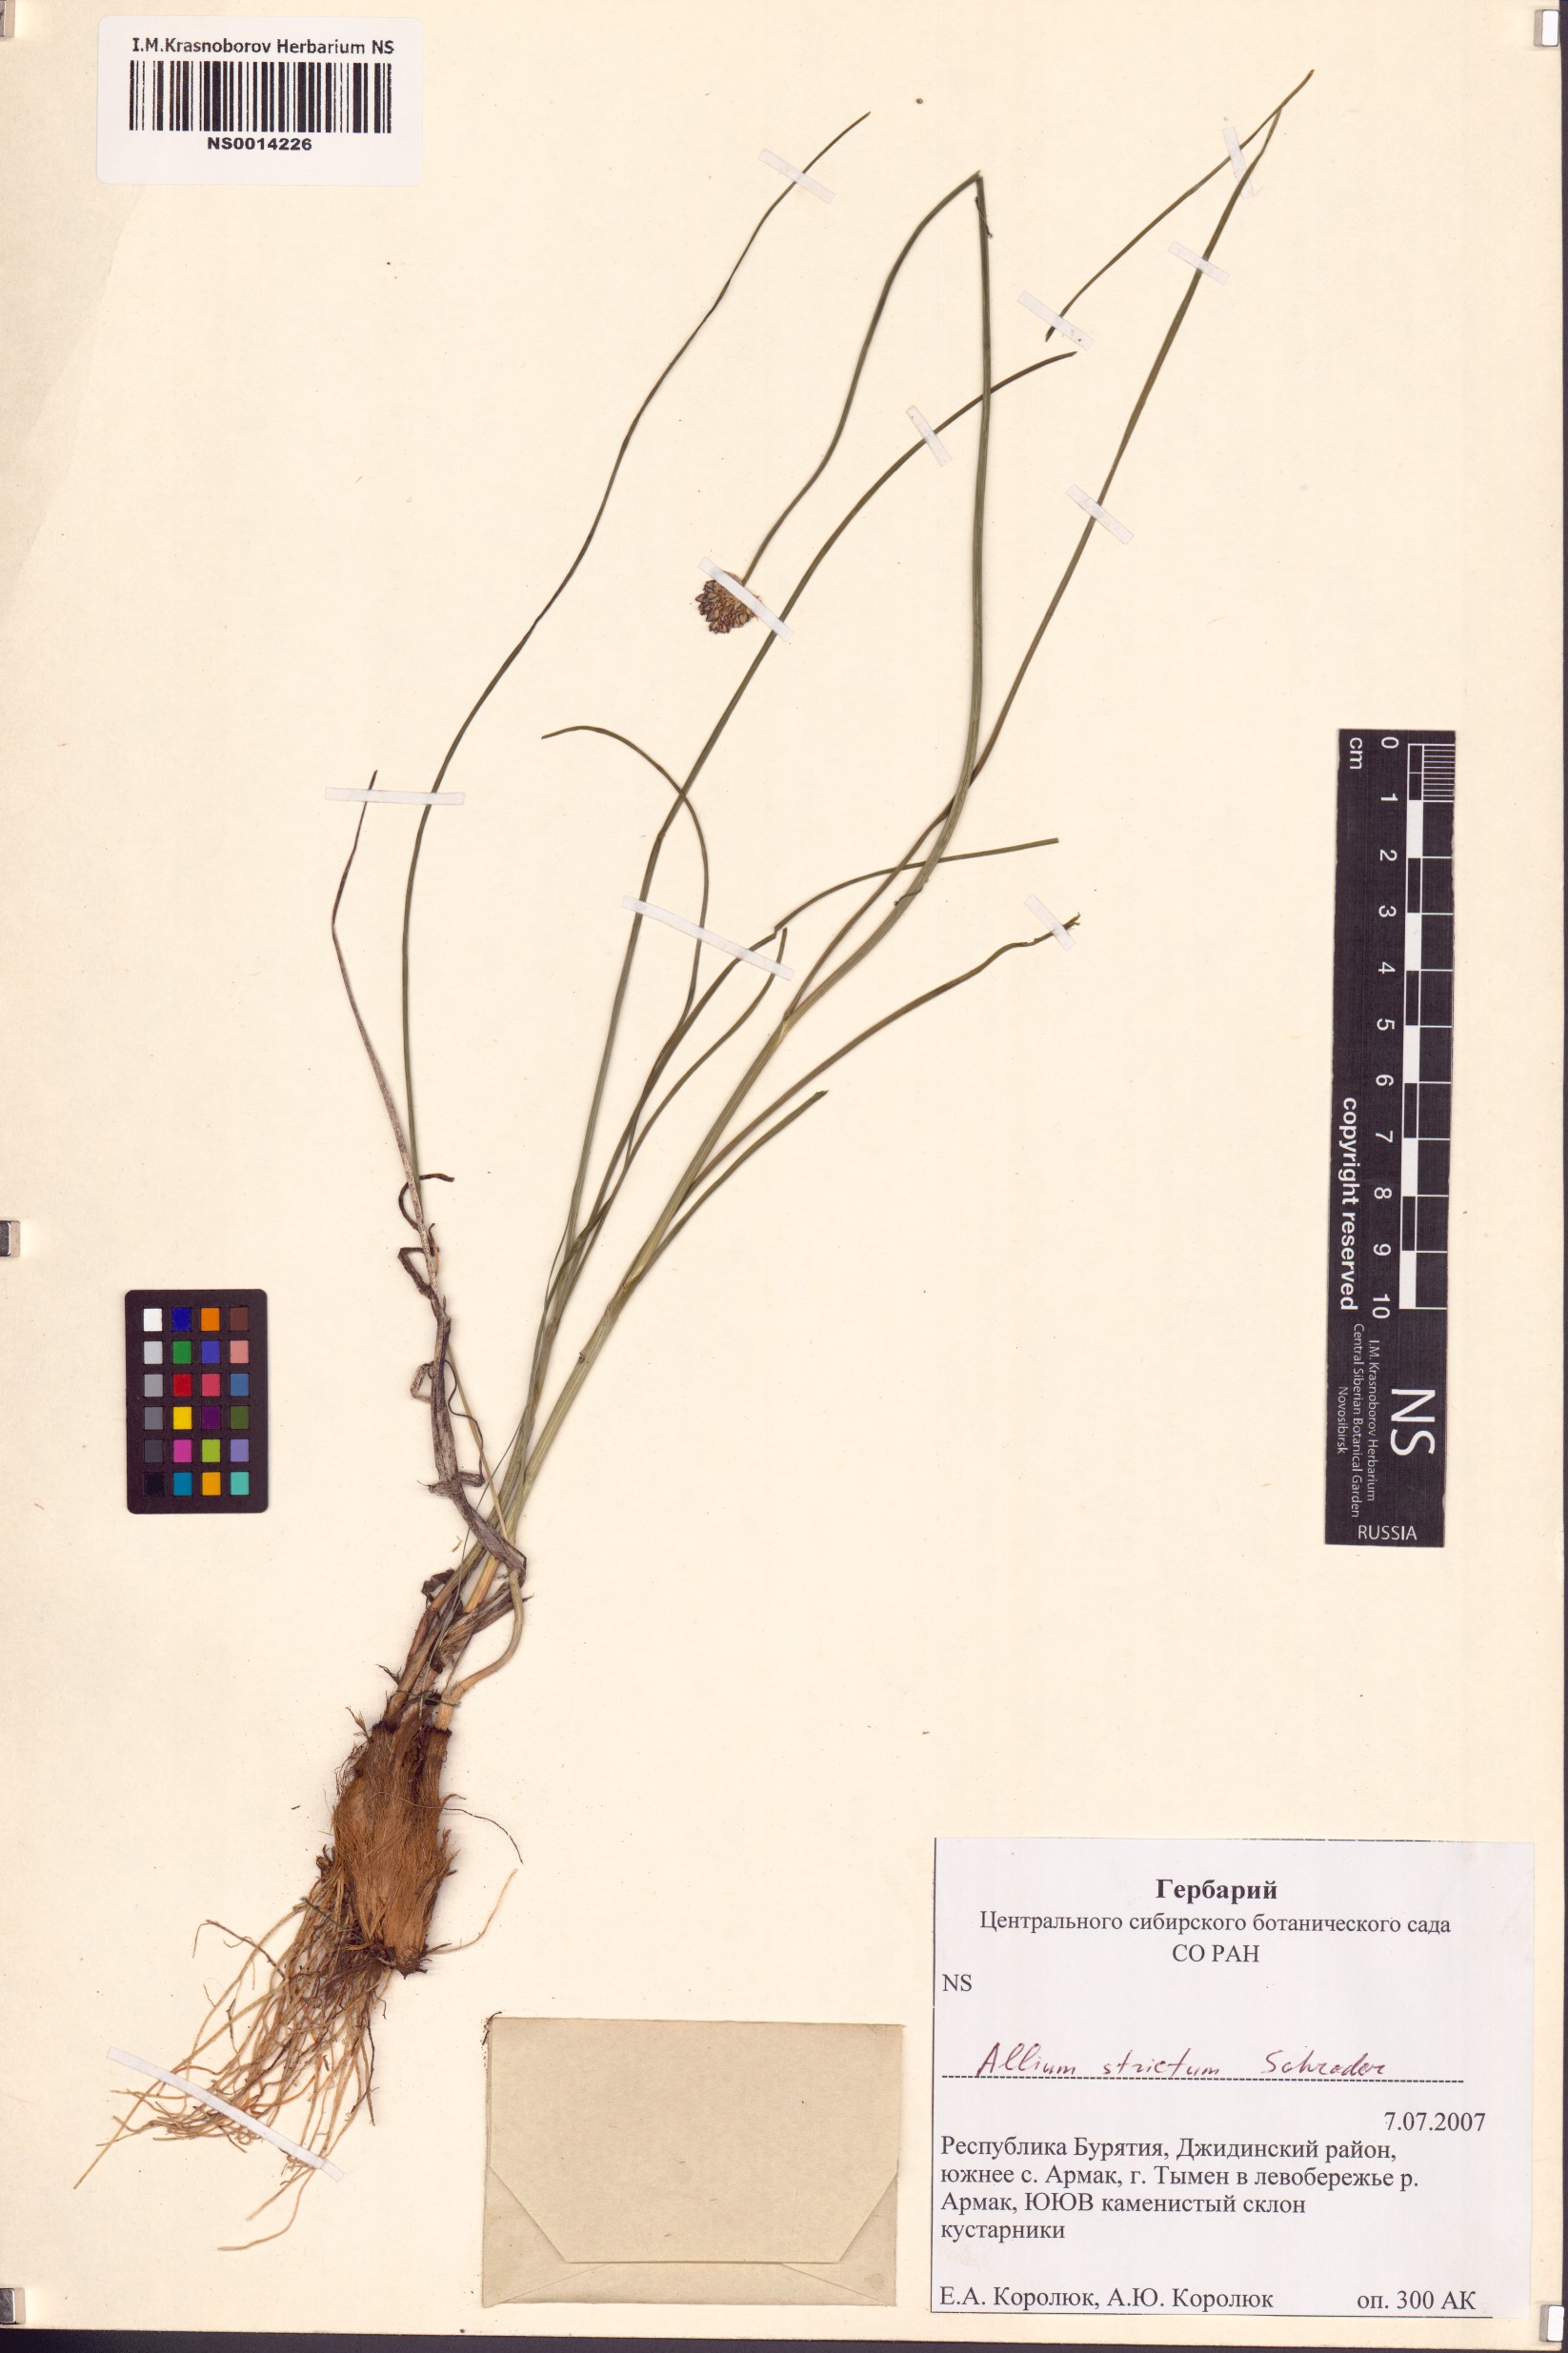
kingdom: Plantae
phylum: Tracheophyta
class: Liliopsida
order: Asparagales
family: Amaryllidaceae
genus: Allium
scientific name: Allium strictum
